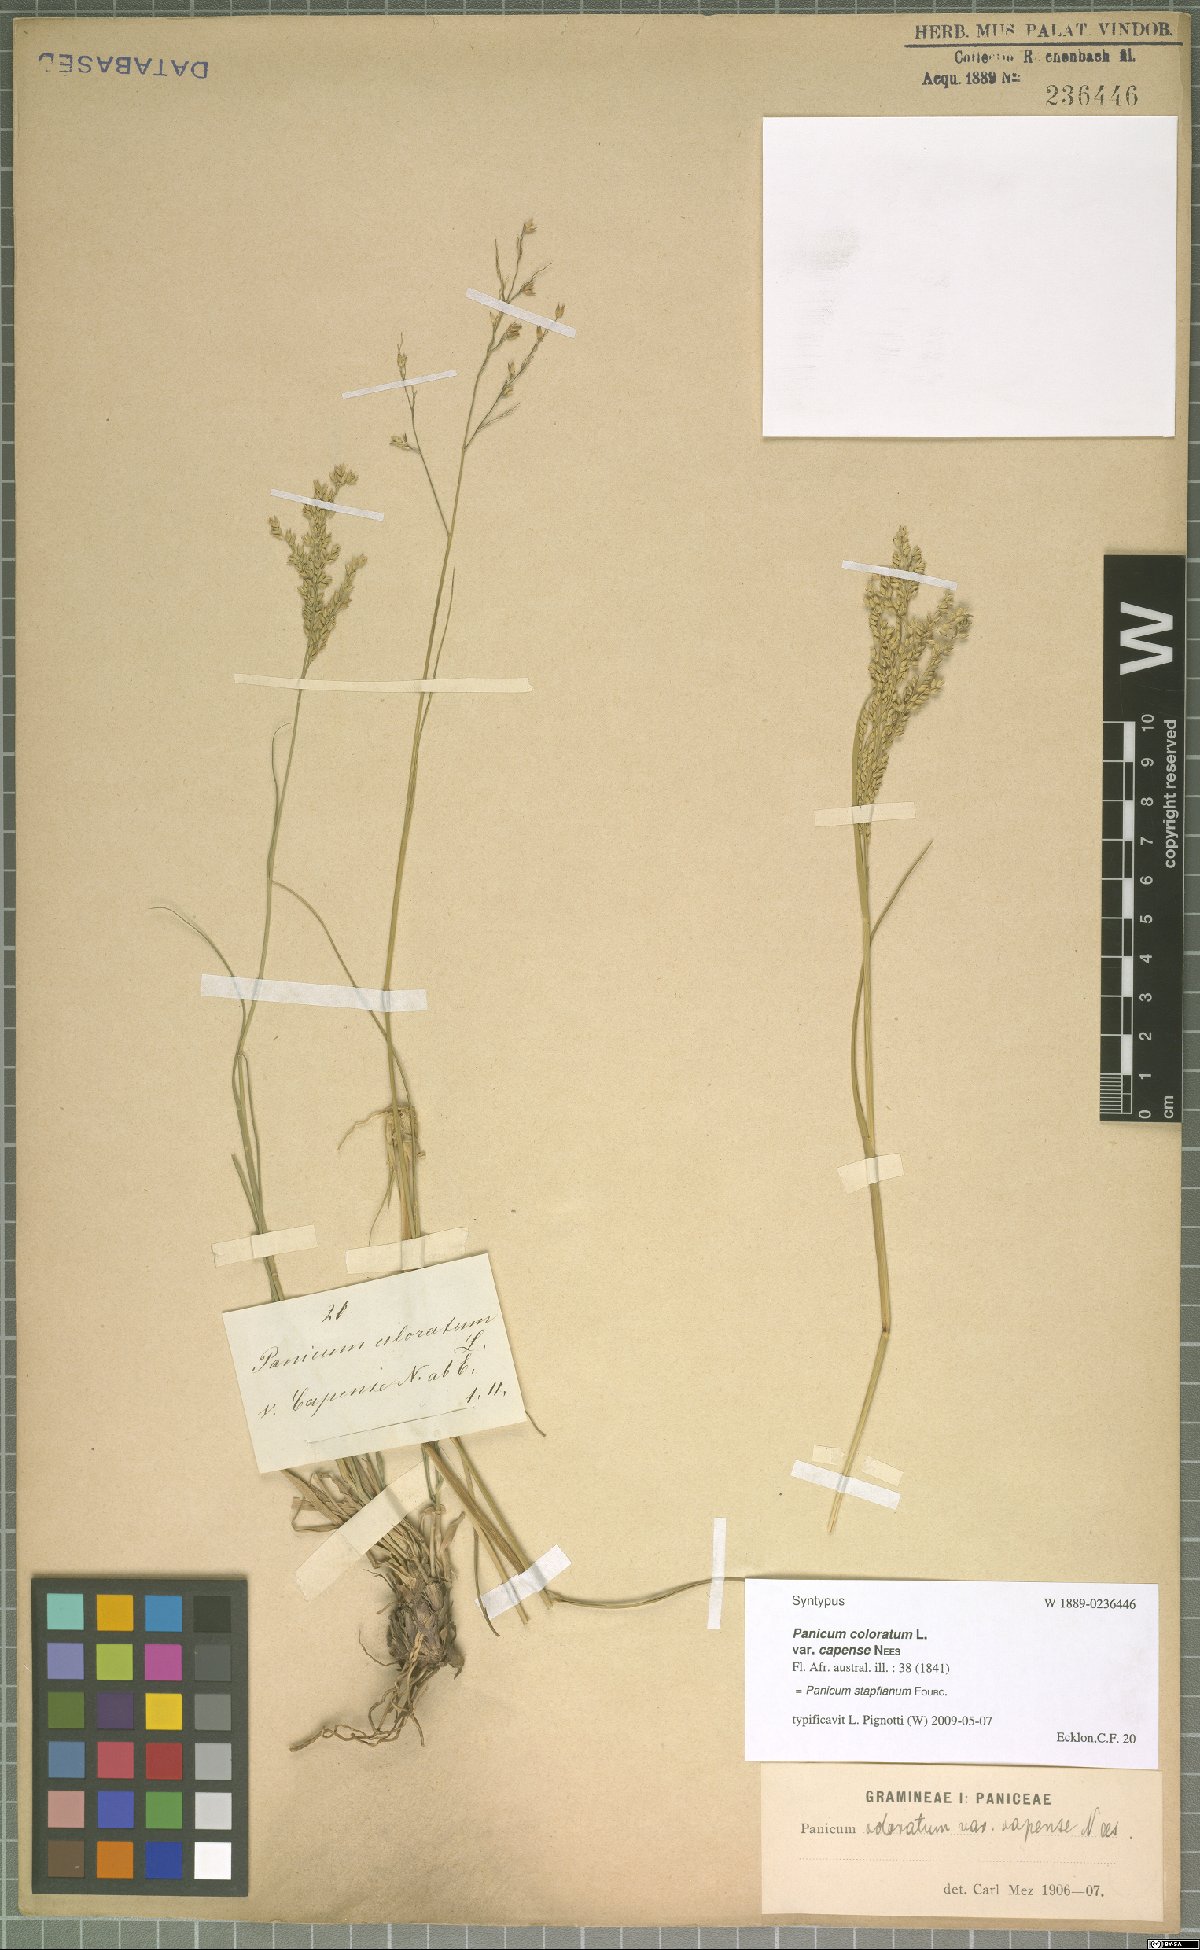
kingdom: Plantae
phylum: Tracheophyta
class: Liliopsida
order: Poales
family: Poaceae
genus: Panicum
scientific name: Panicum stapfianum
